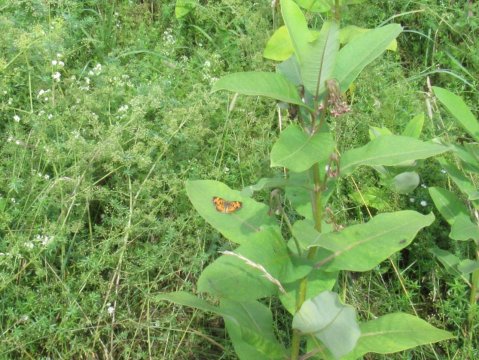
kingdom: Animalia
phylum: Arthropoda
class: Insecta
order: Lepidoptera
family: Nymphalidae
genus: Phyciodes
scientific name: Phyciodes
